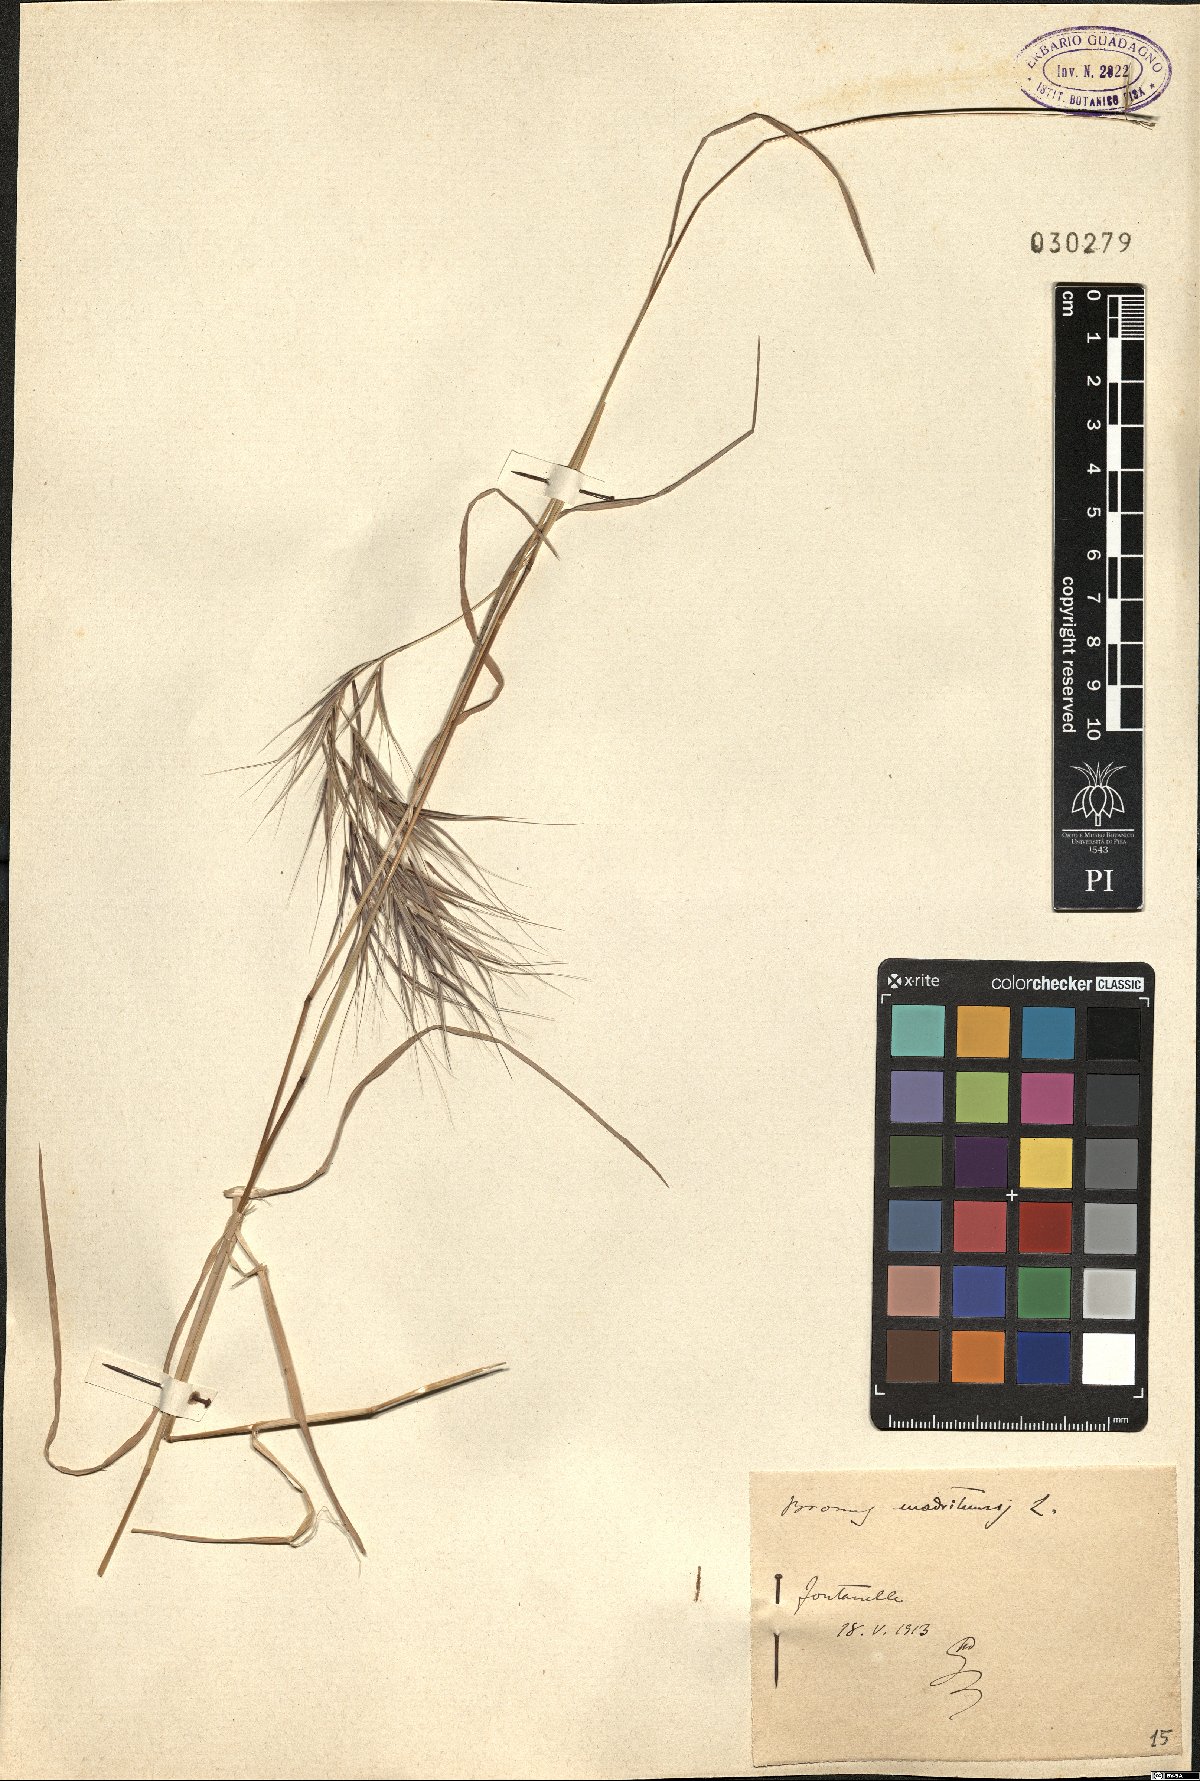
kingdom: Plantae
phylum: Tracheophyta
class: Liliopsida
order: Poales
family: Poaceae
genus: Bromus
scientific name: Bromus madritensis
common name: Compact brome
